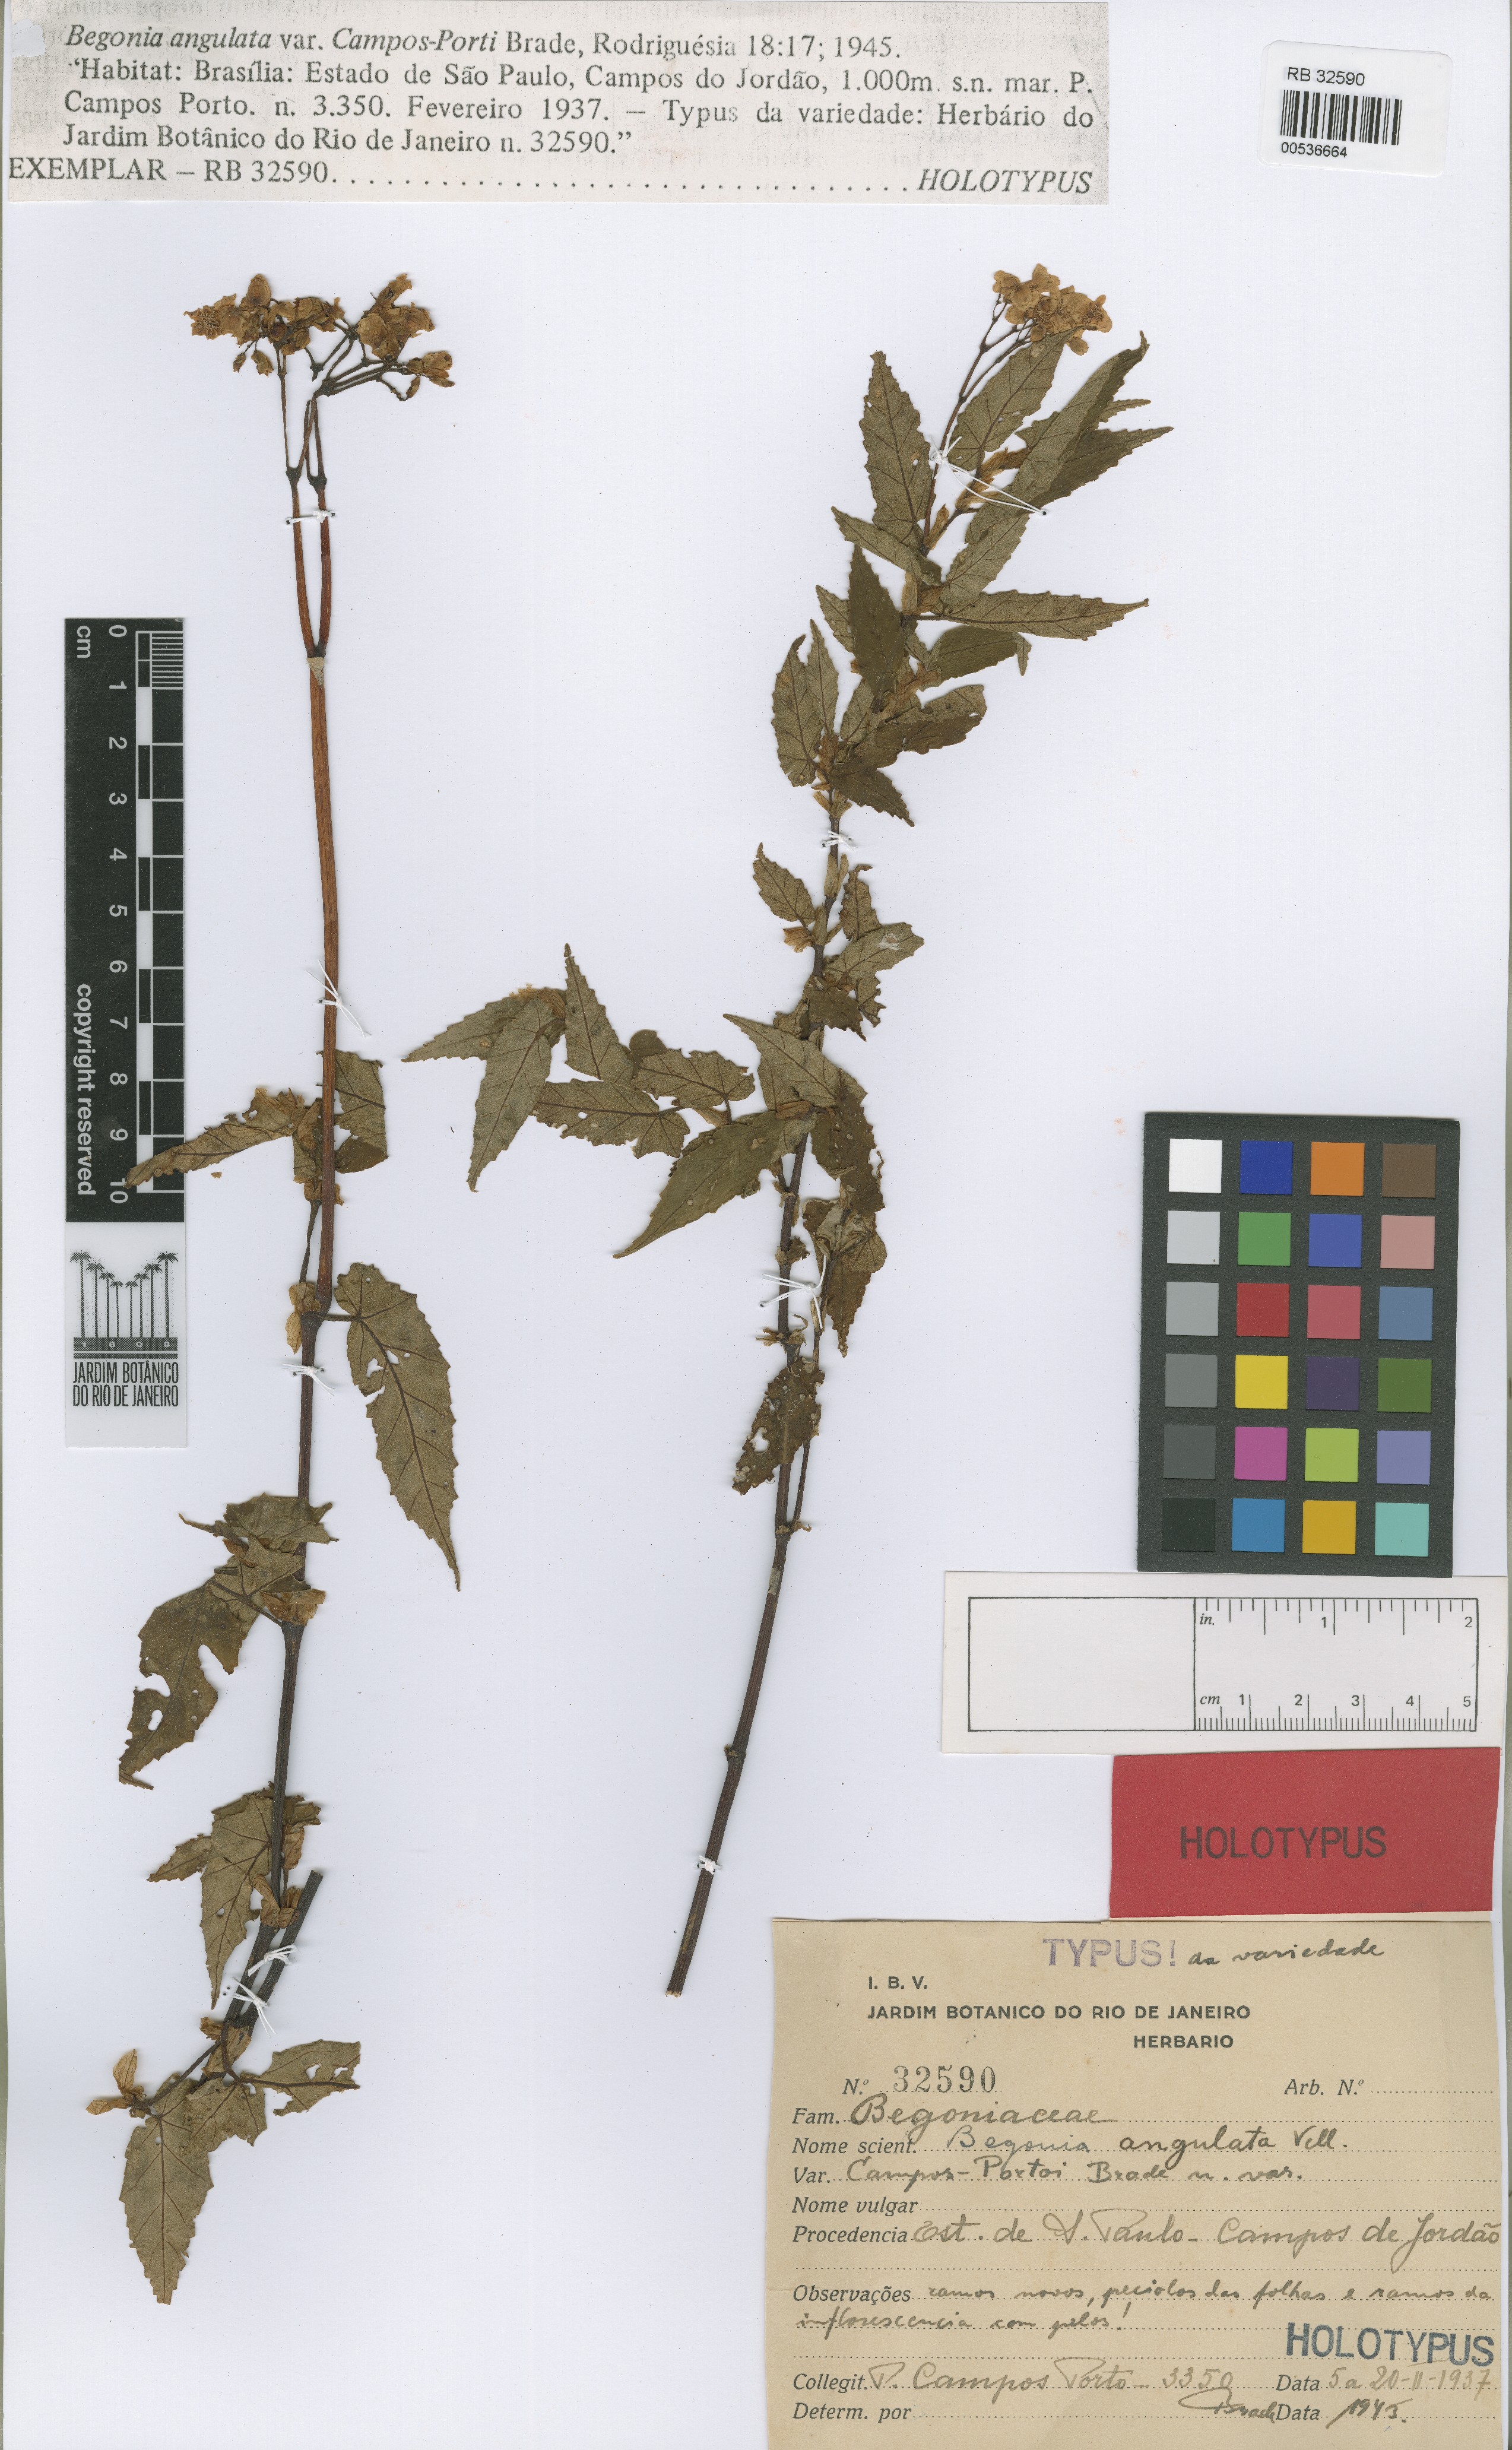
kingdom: Plantae
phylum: Tracheophyta
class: Magnoliopsida
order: Cucurbitales
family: Begoniaceae
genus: Begonia
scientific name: Begonia angulata
